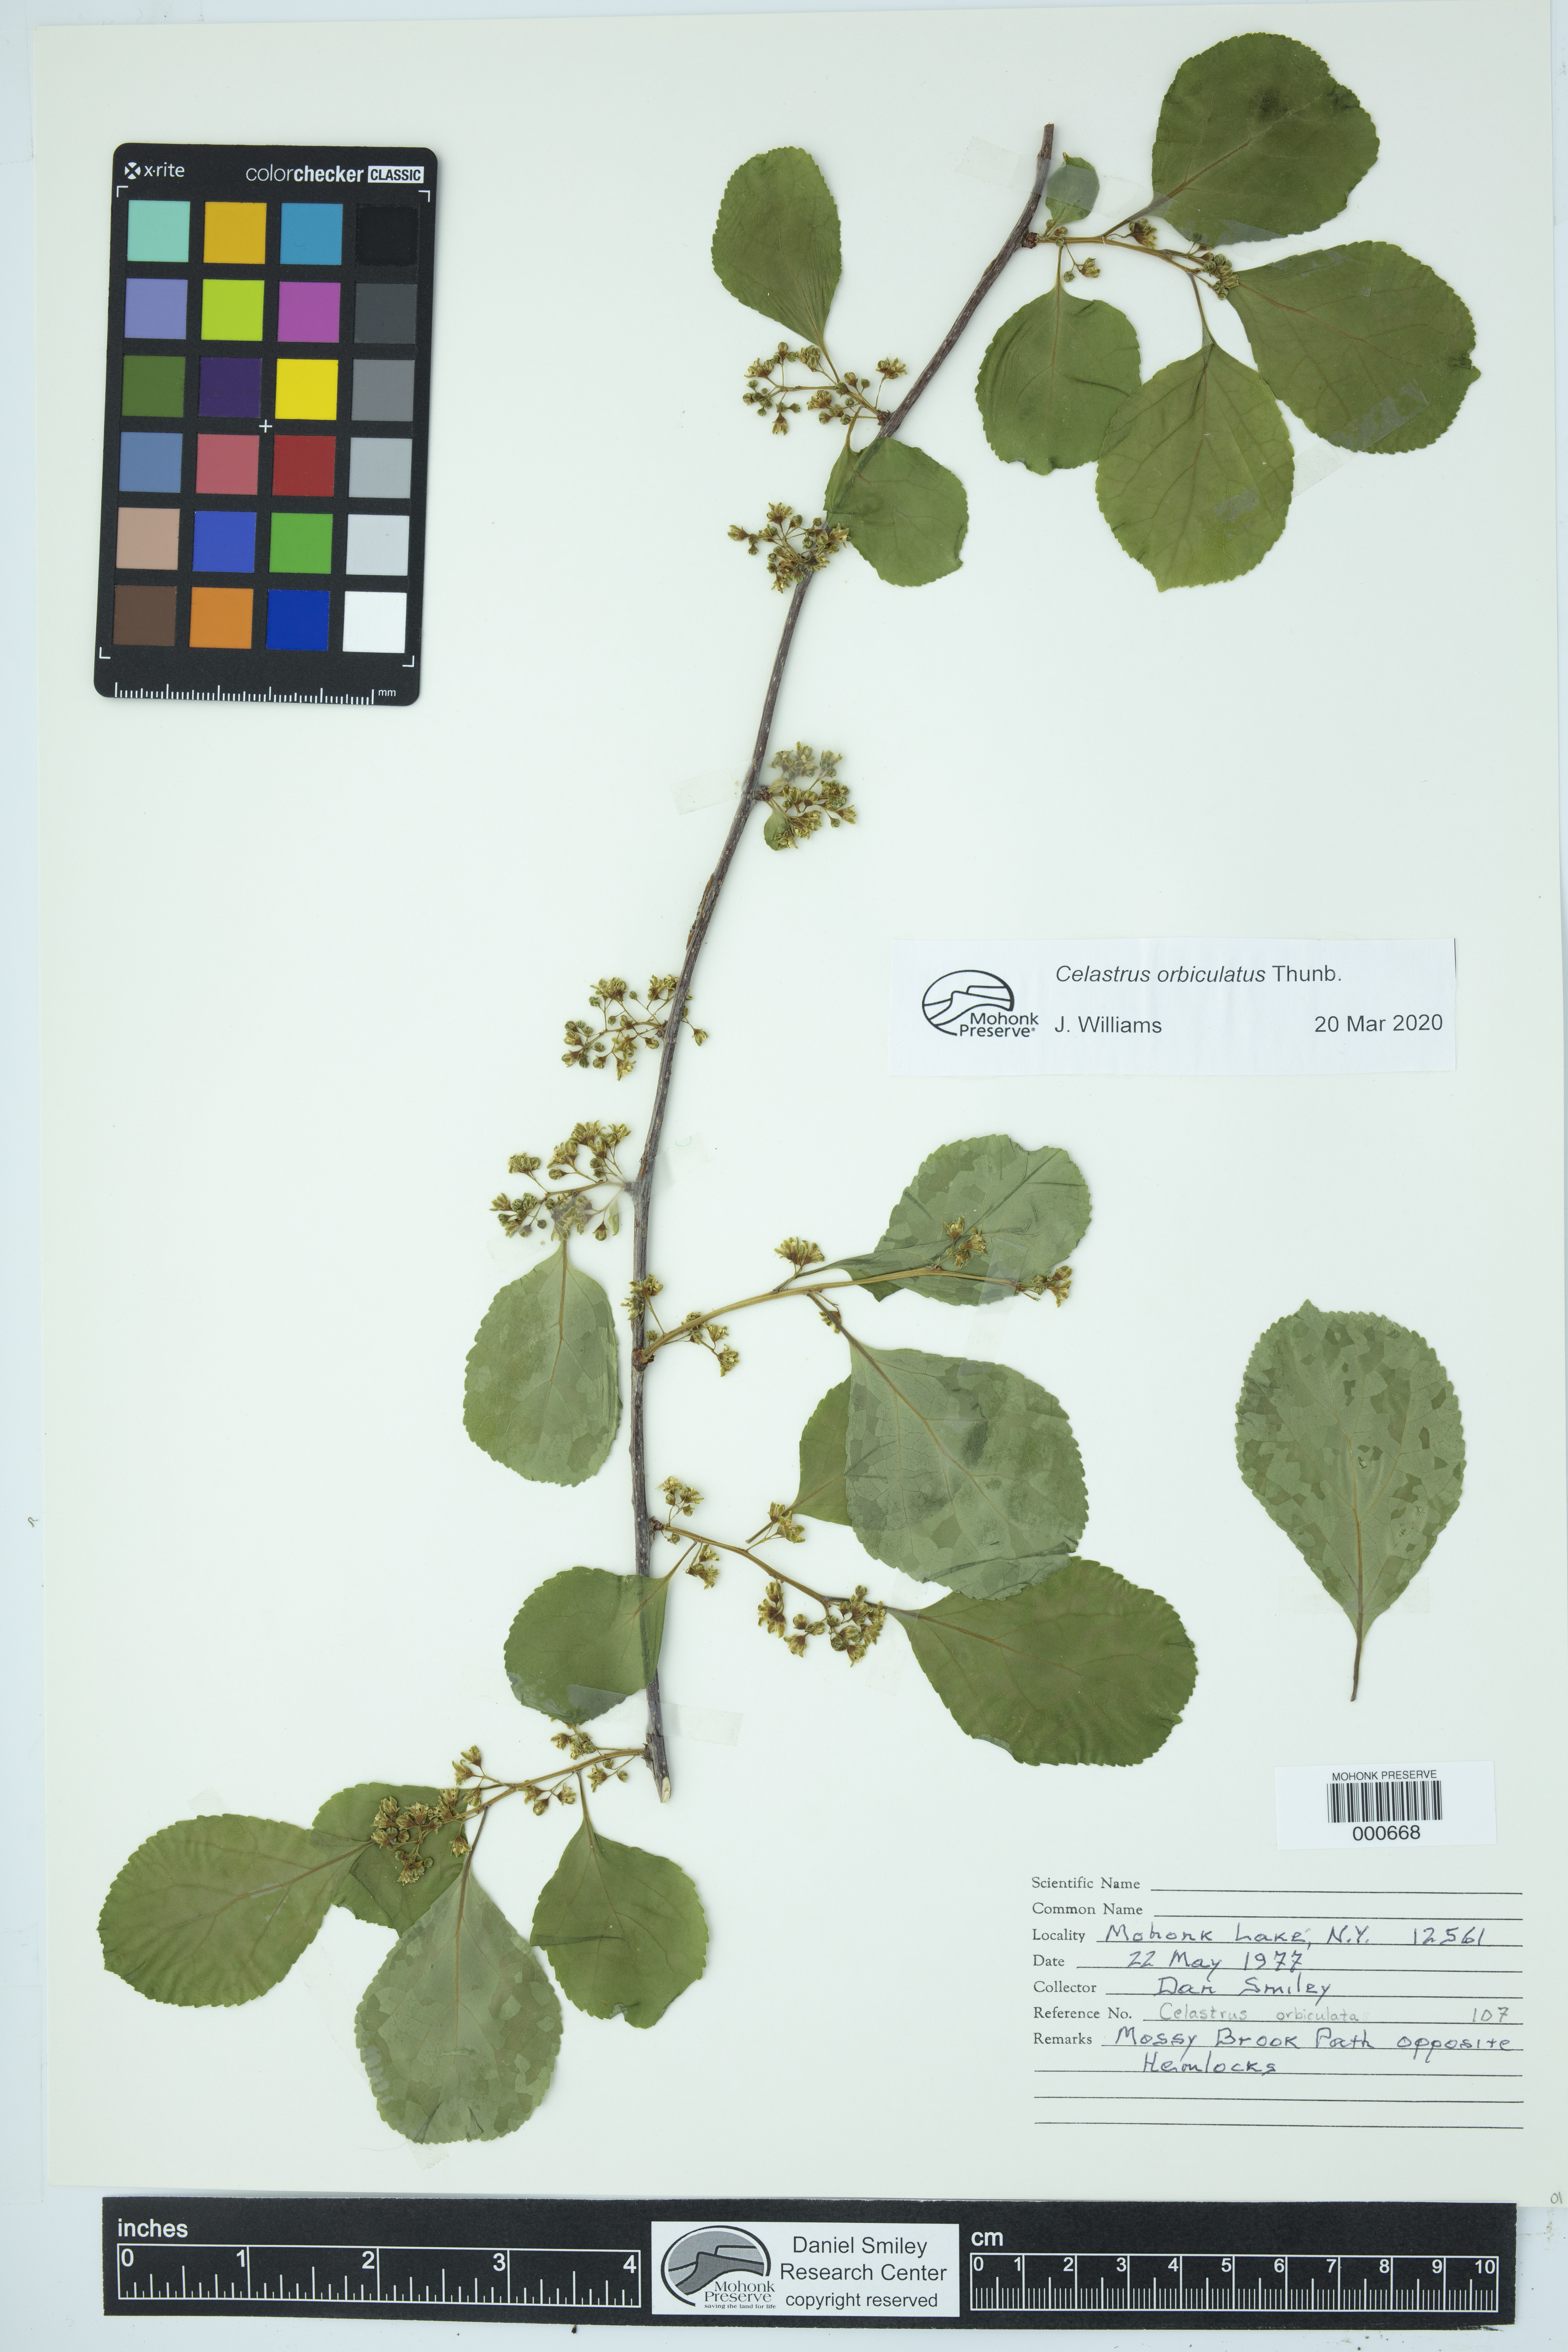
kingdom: Plantae
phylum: Tracheophyta
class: Magnoliopsida
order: Celastrales
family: Celastraceae
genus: Celastrus
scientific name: Celastrus orbiculatus
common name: Oriental bittersweet
